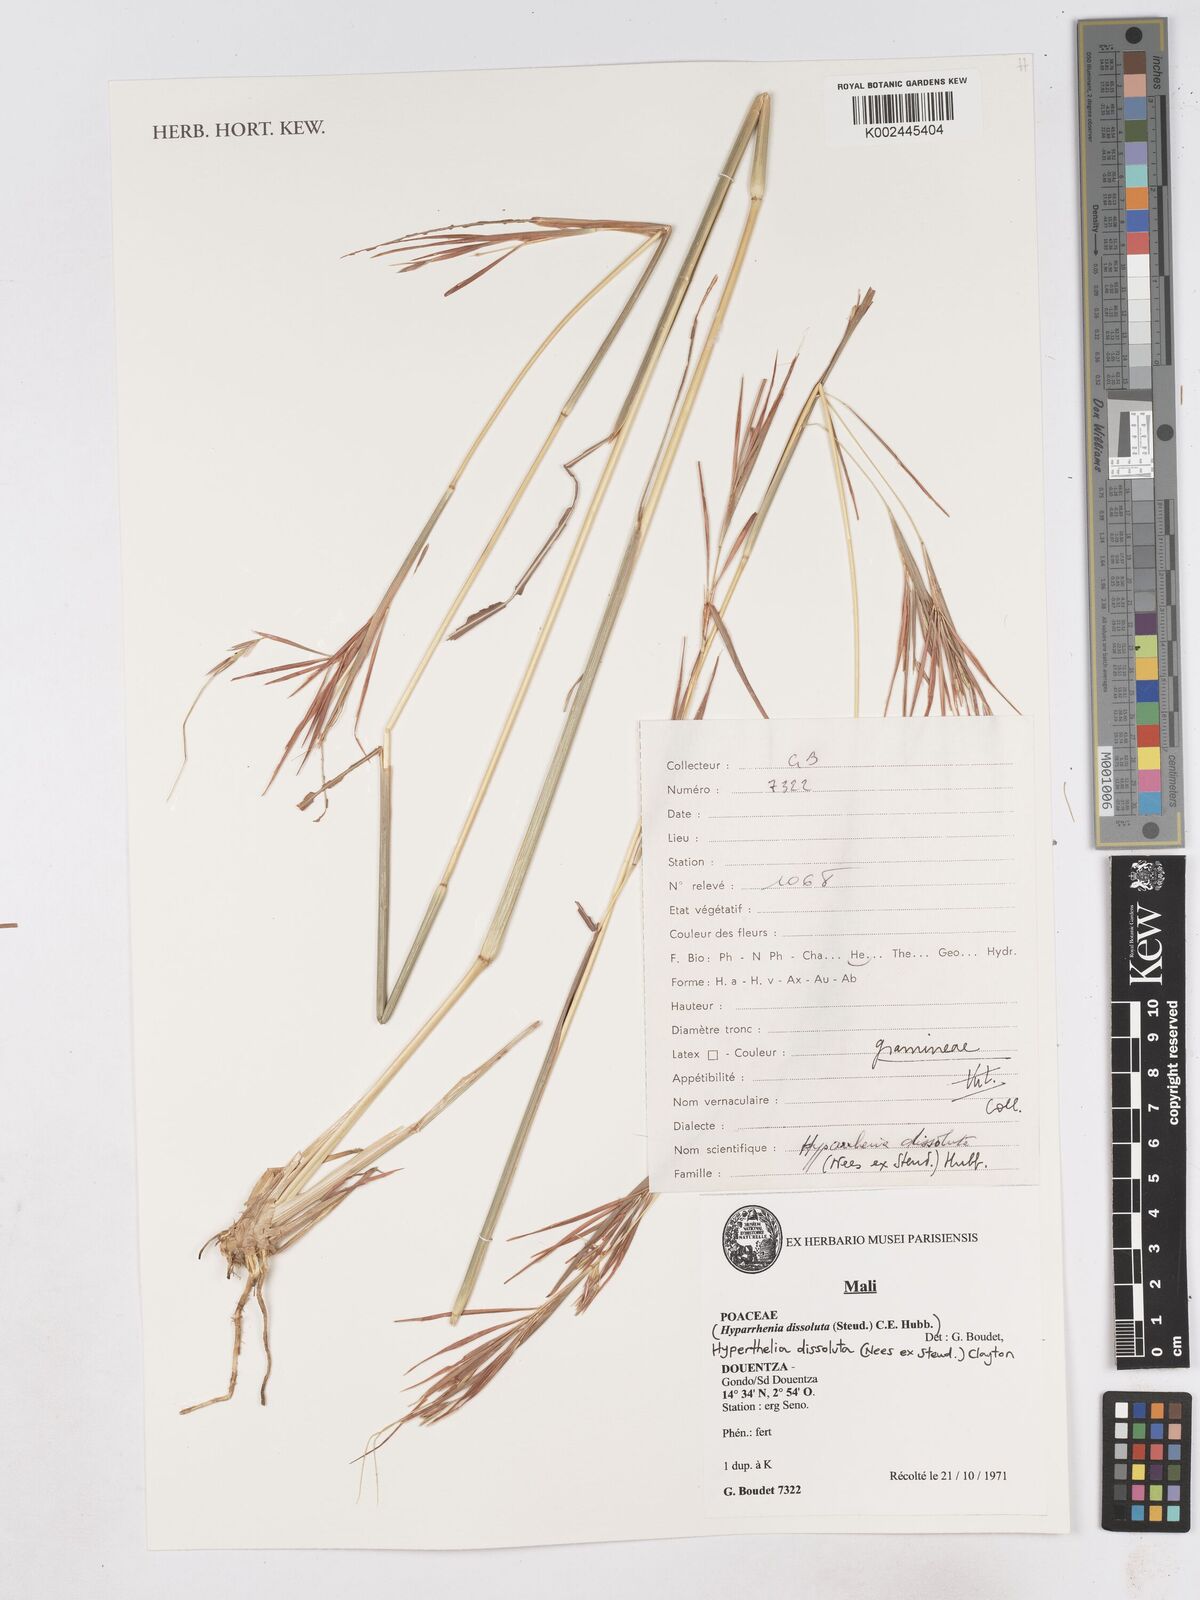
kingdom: Plantae
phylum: Tracheophyta
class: Liliopsida
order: Poales
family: Poaceae
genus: Hyperthelia
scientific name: Hyperthelia dissoluta
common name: Yellow thatching grass
